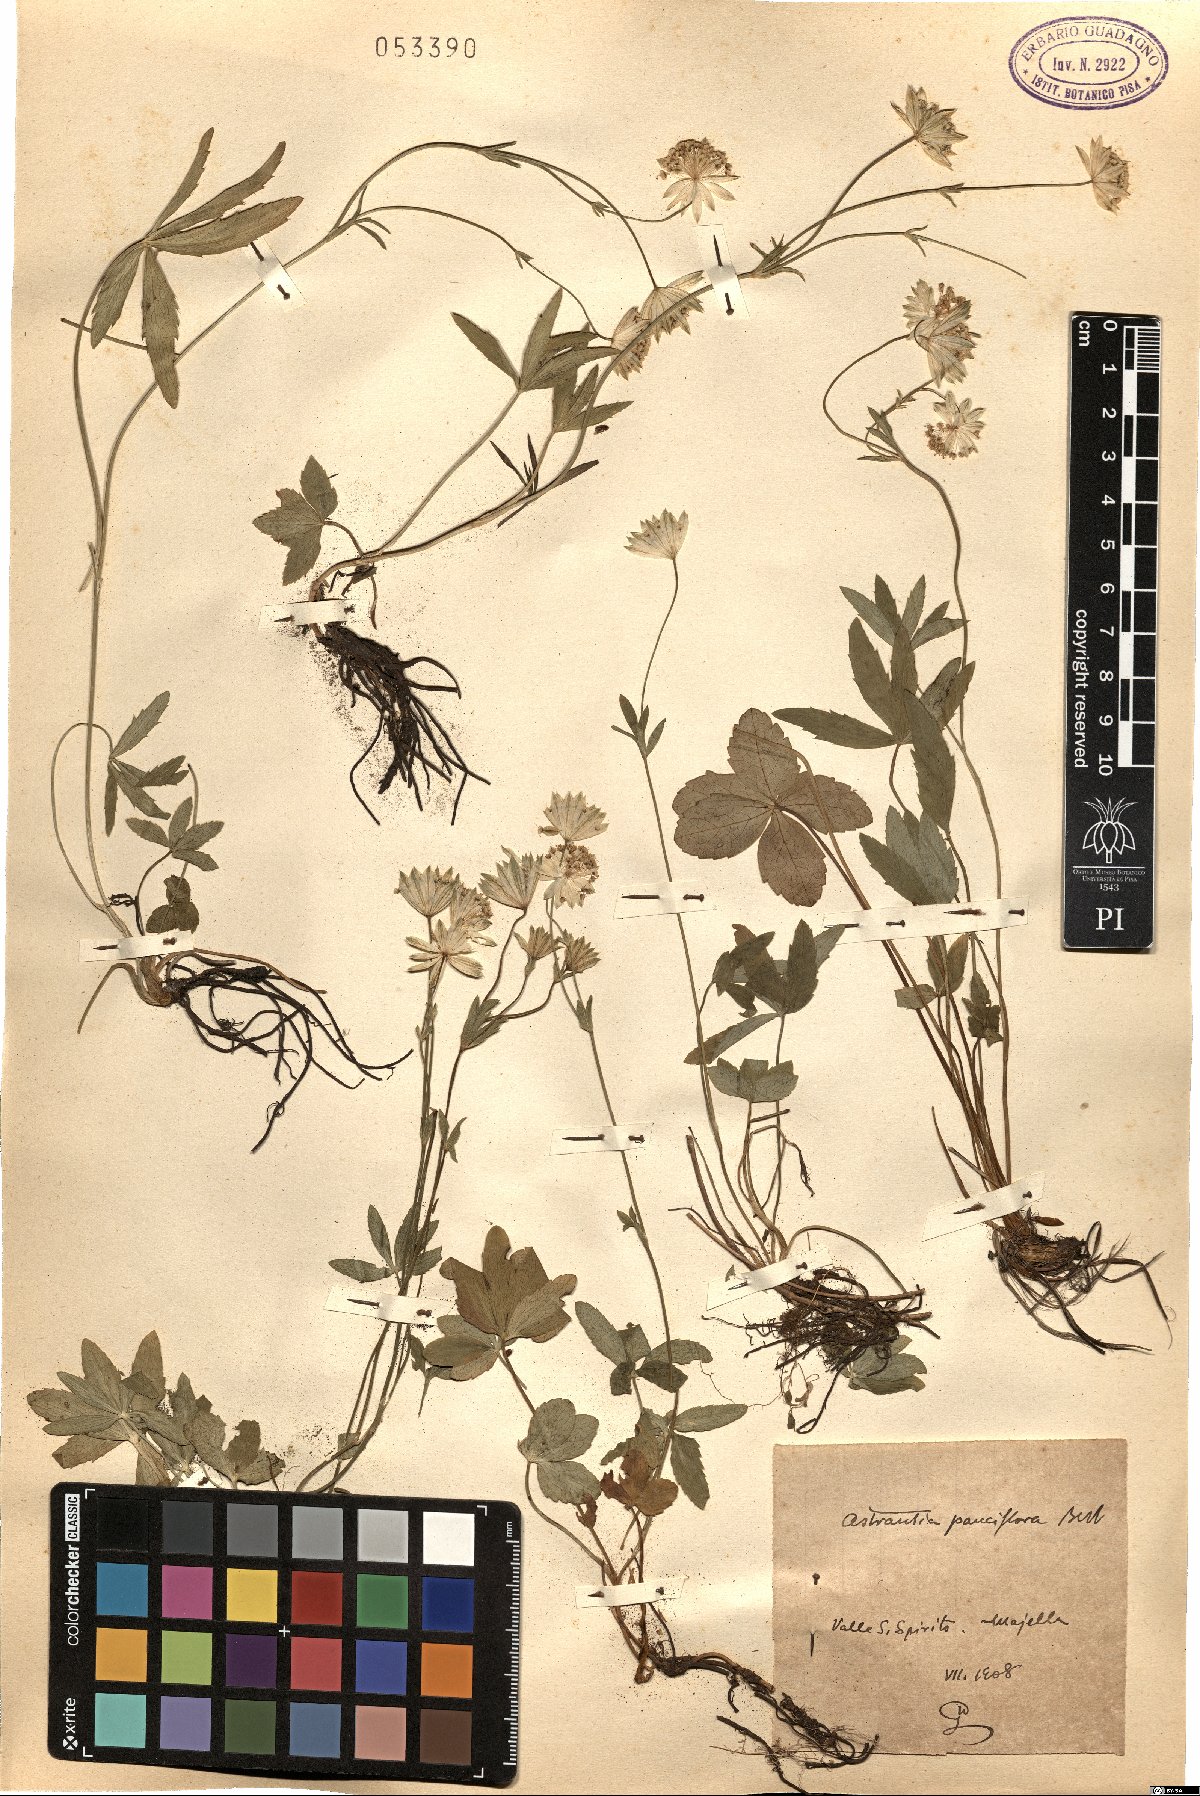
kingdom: Plantae
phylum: Tracheophyta
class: Magnoliopsida
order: Apiales
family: Apiaceae
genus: Astrantia
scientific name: Astrantia pauciflora
